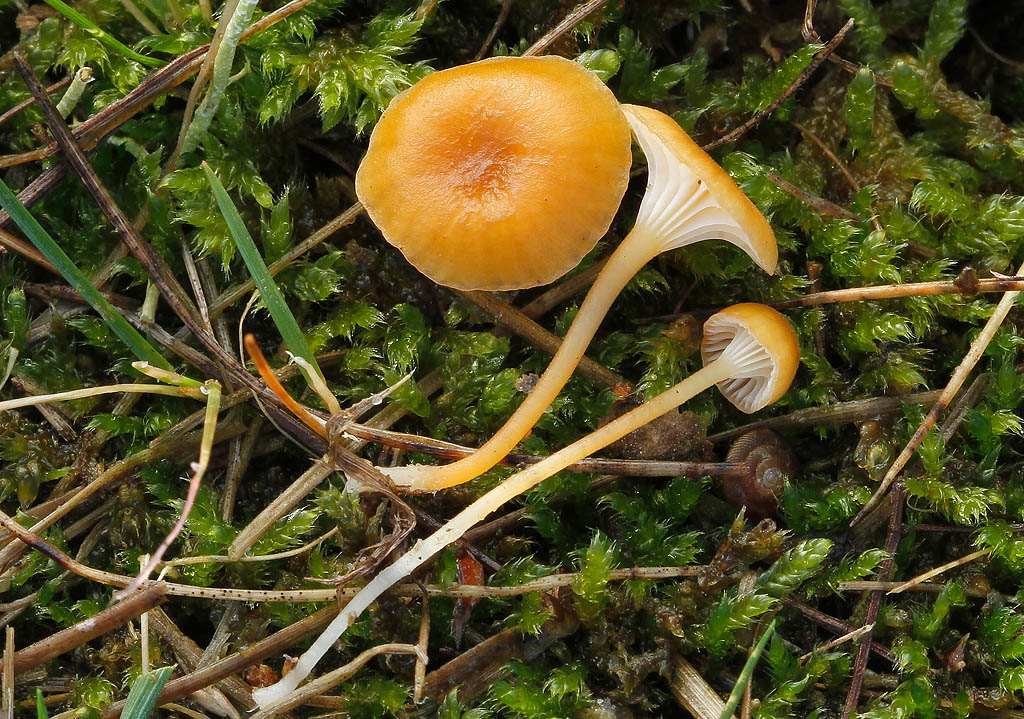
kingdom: Fungi
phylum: Basidiomycota
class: Agaricomycetes
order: Hymenochaetales
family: Rickenellaceae
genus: Rickenella
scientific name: Rickenella fibula
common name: orange mosnavlehat
